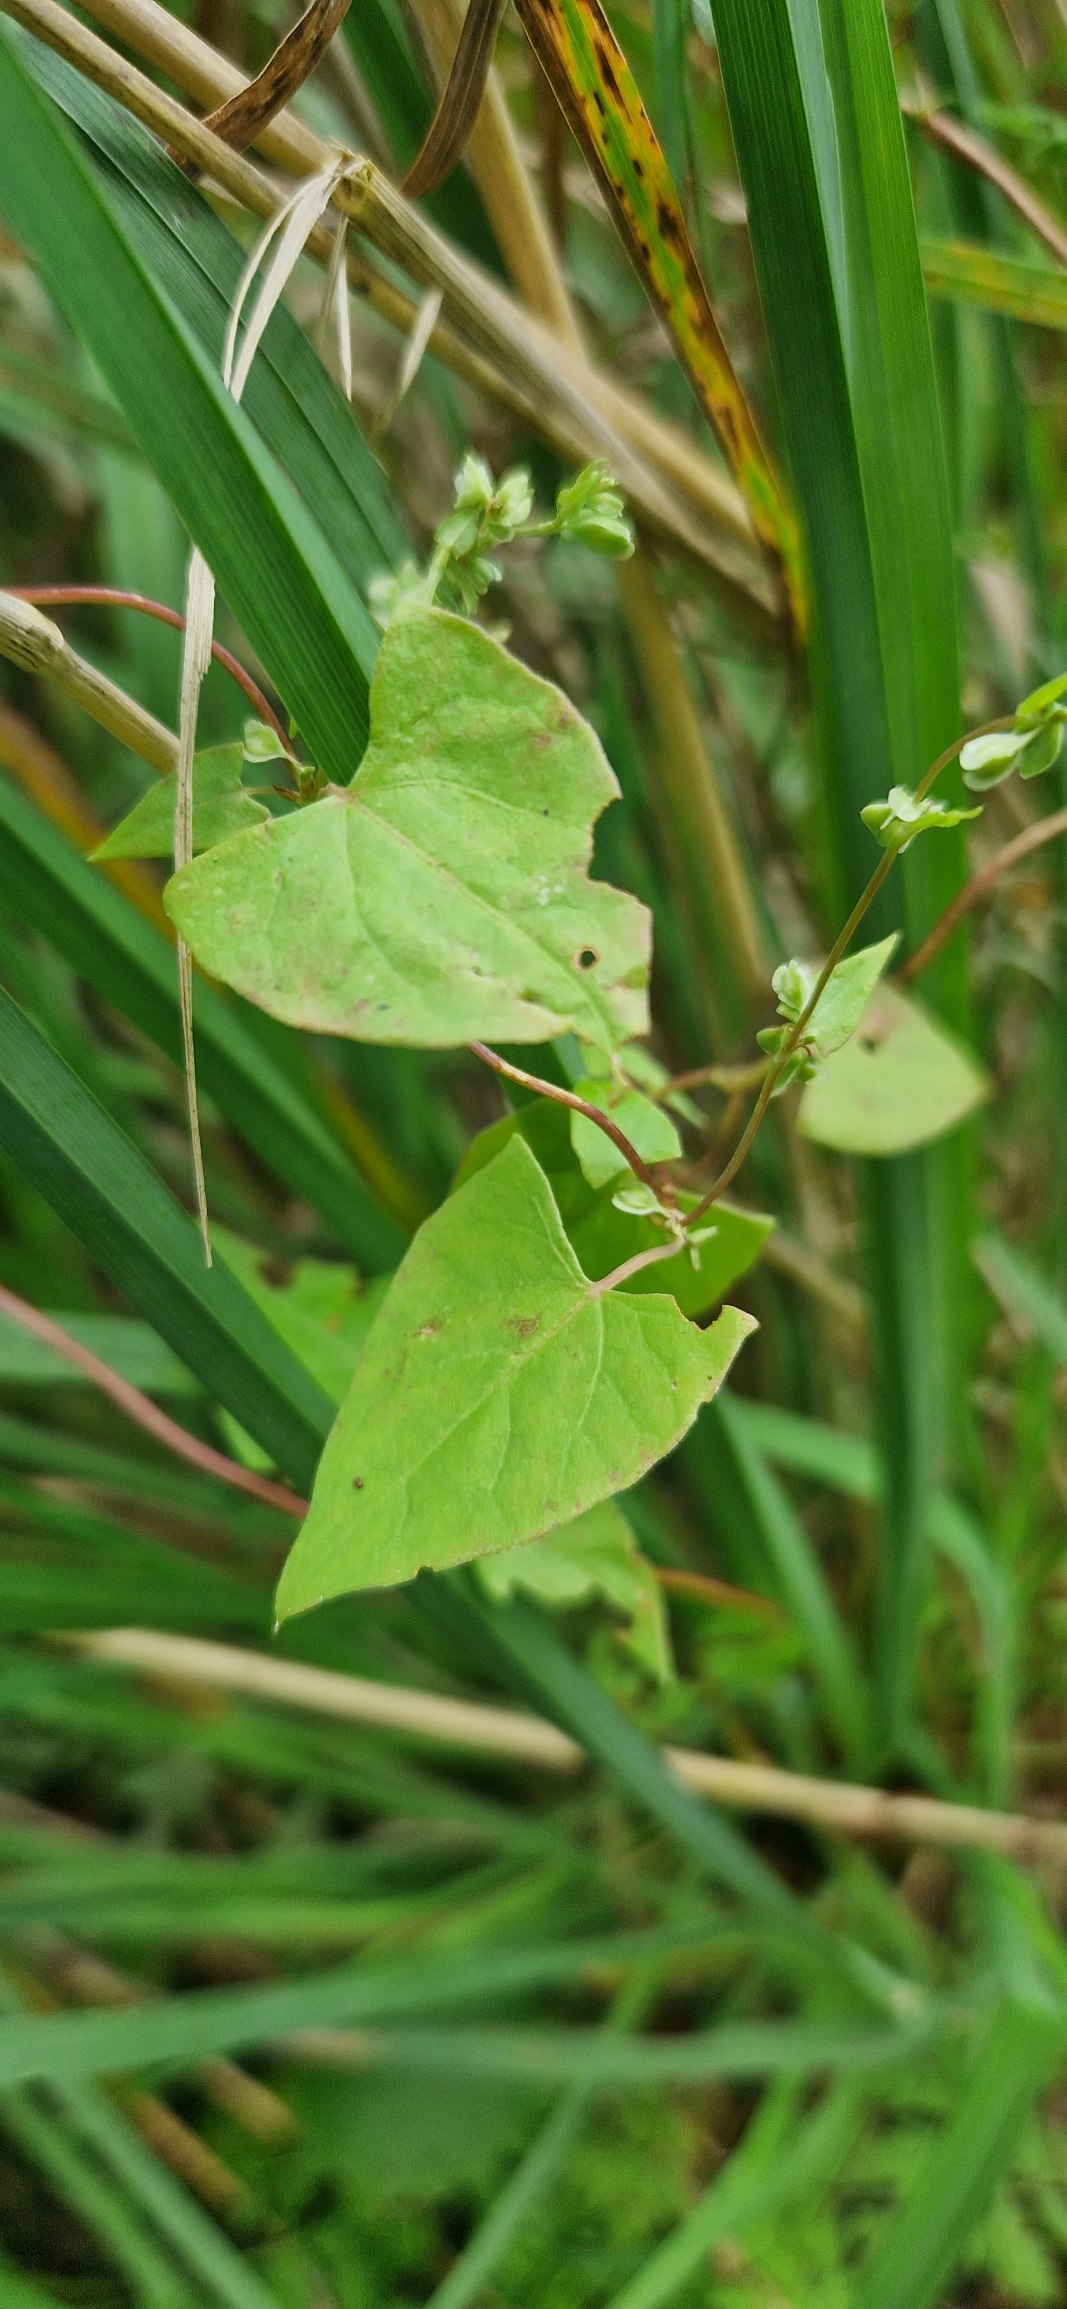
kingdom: Plantae
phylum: Tracheophyta
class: Magnoliopsida
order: Caryophyllales
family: Polygonaceae
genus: Fallopia
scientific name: Fallopia dumetorum
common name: Vinge-pileurt
